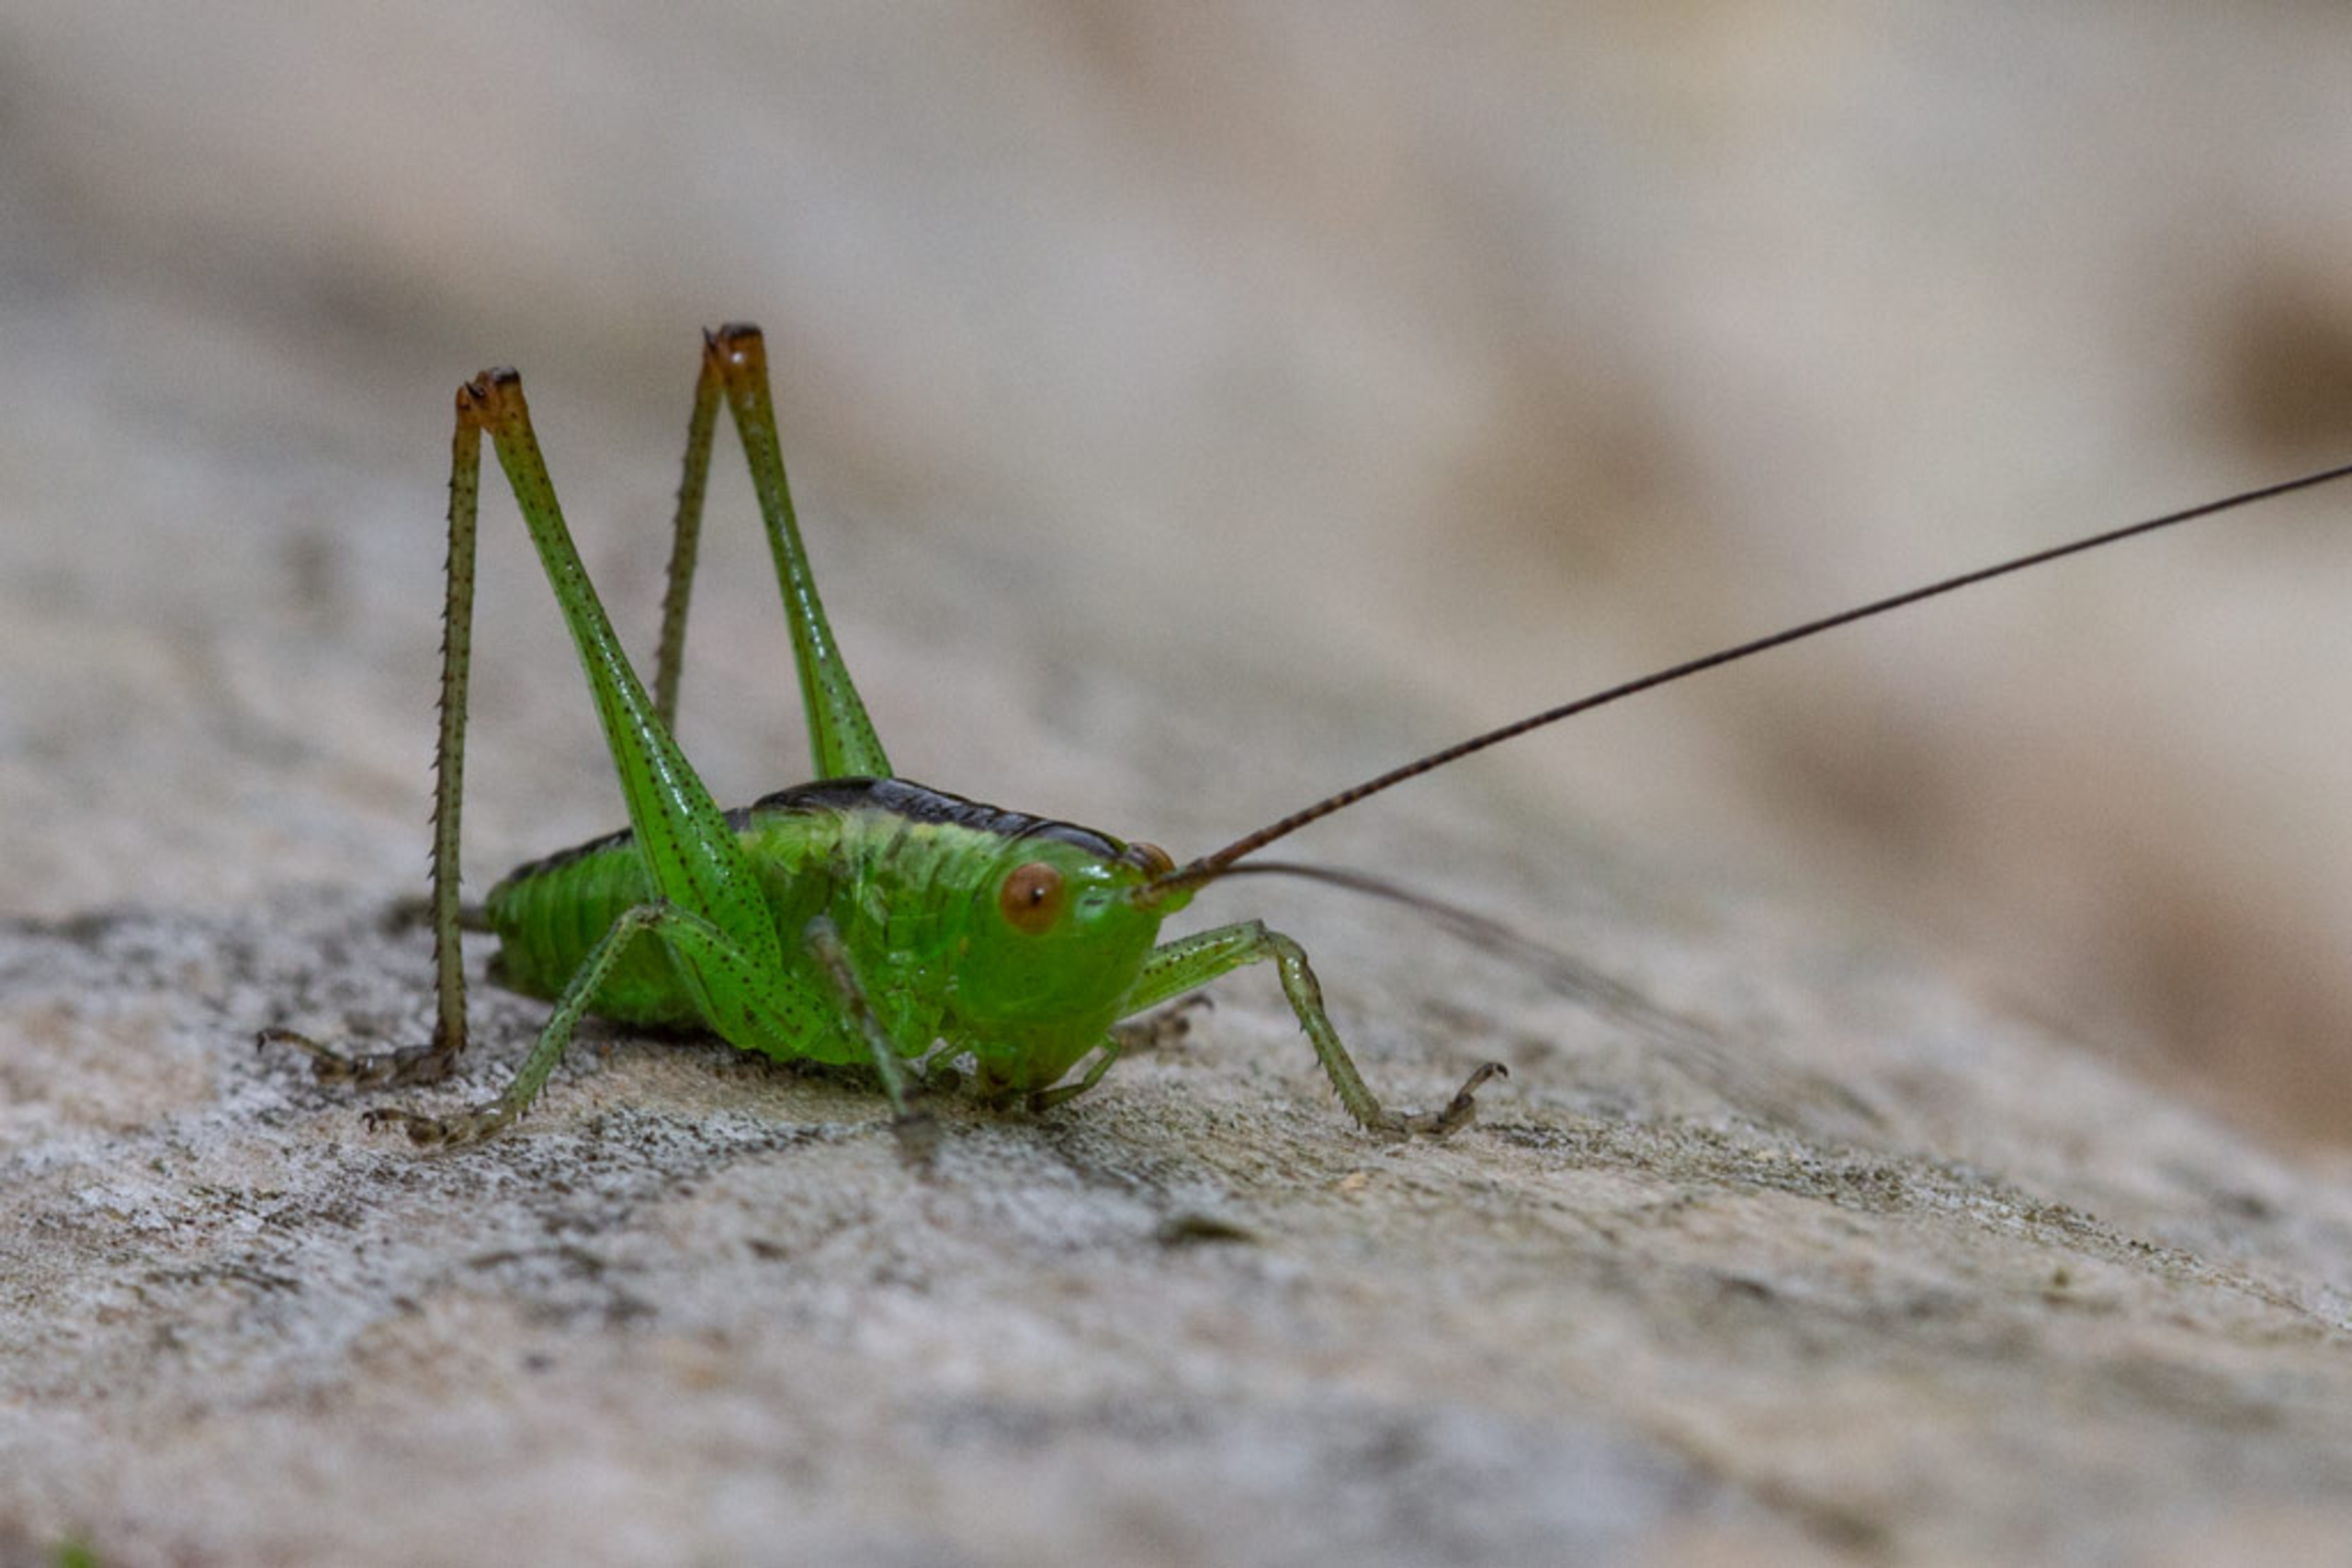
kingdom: Animalia
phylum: Arthropoda
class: Insecta
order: Orthoptera
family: Tettigoniidae
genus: Conocephalus
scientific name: Conocephalus dorsalis
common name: Sivgræshoppe
